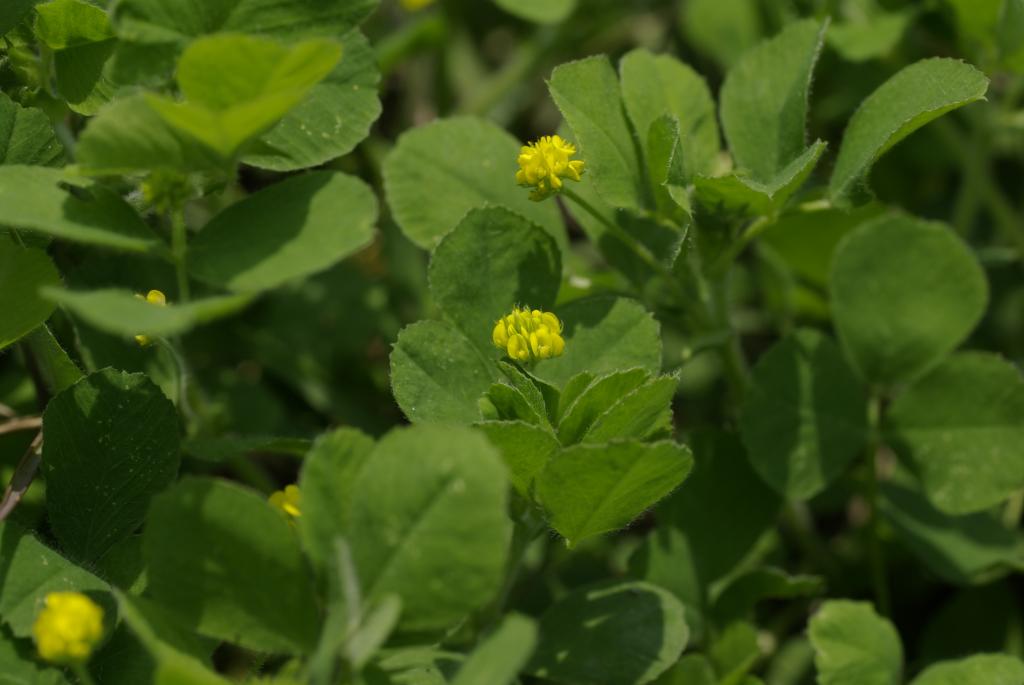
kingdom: Plantae
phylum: Tracheophyta
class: Magnoliopsida
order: Fabales
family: Fabaceae
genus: Medicago
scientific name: Medicago lupulina
